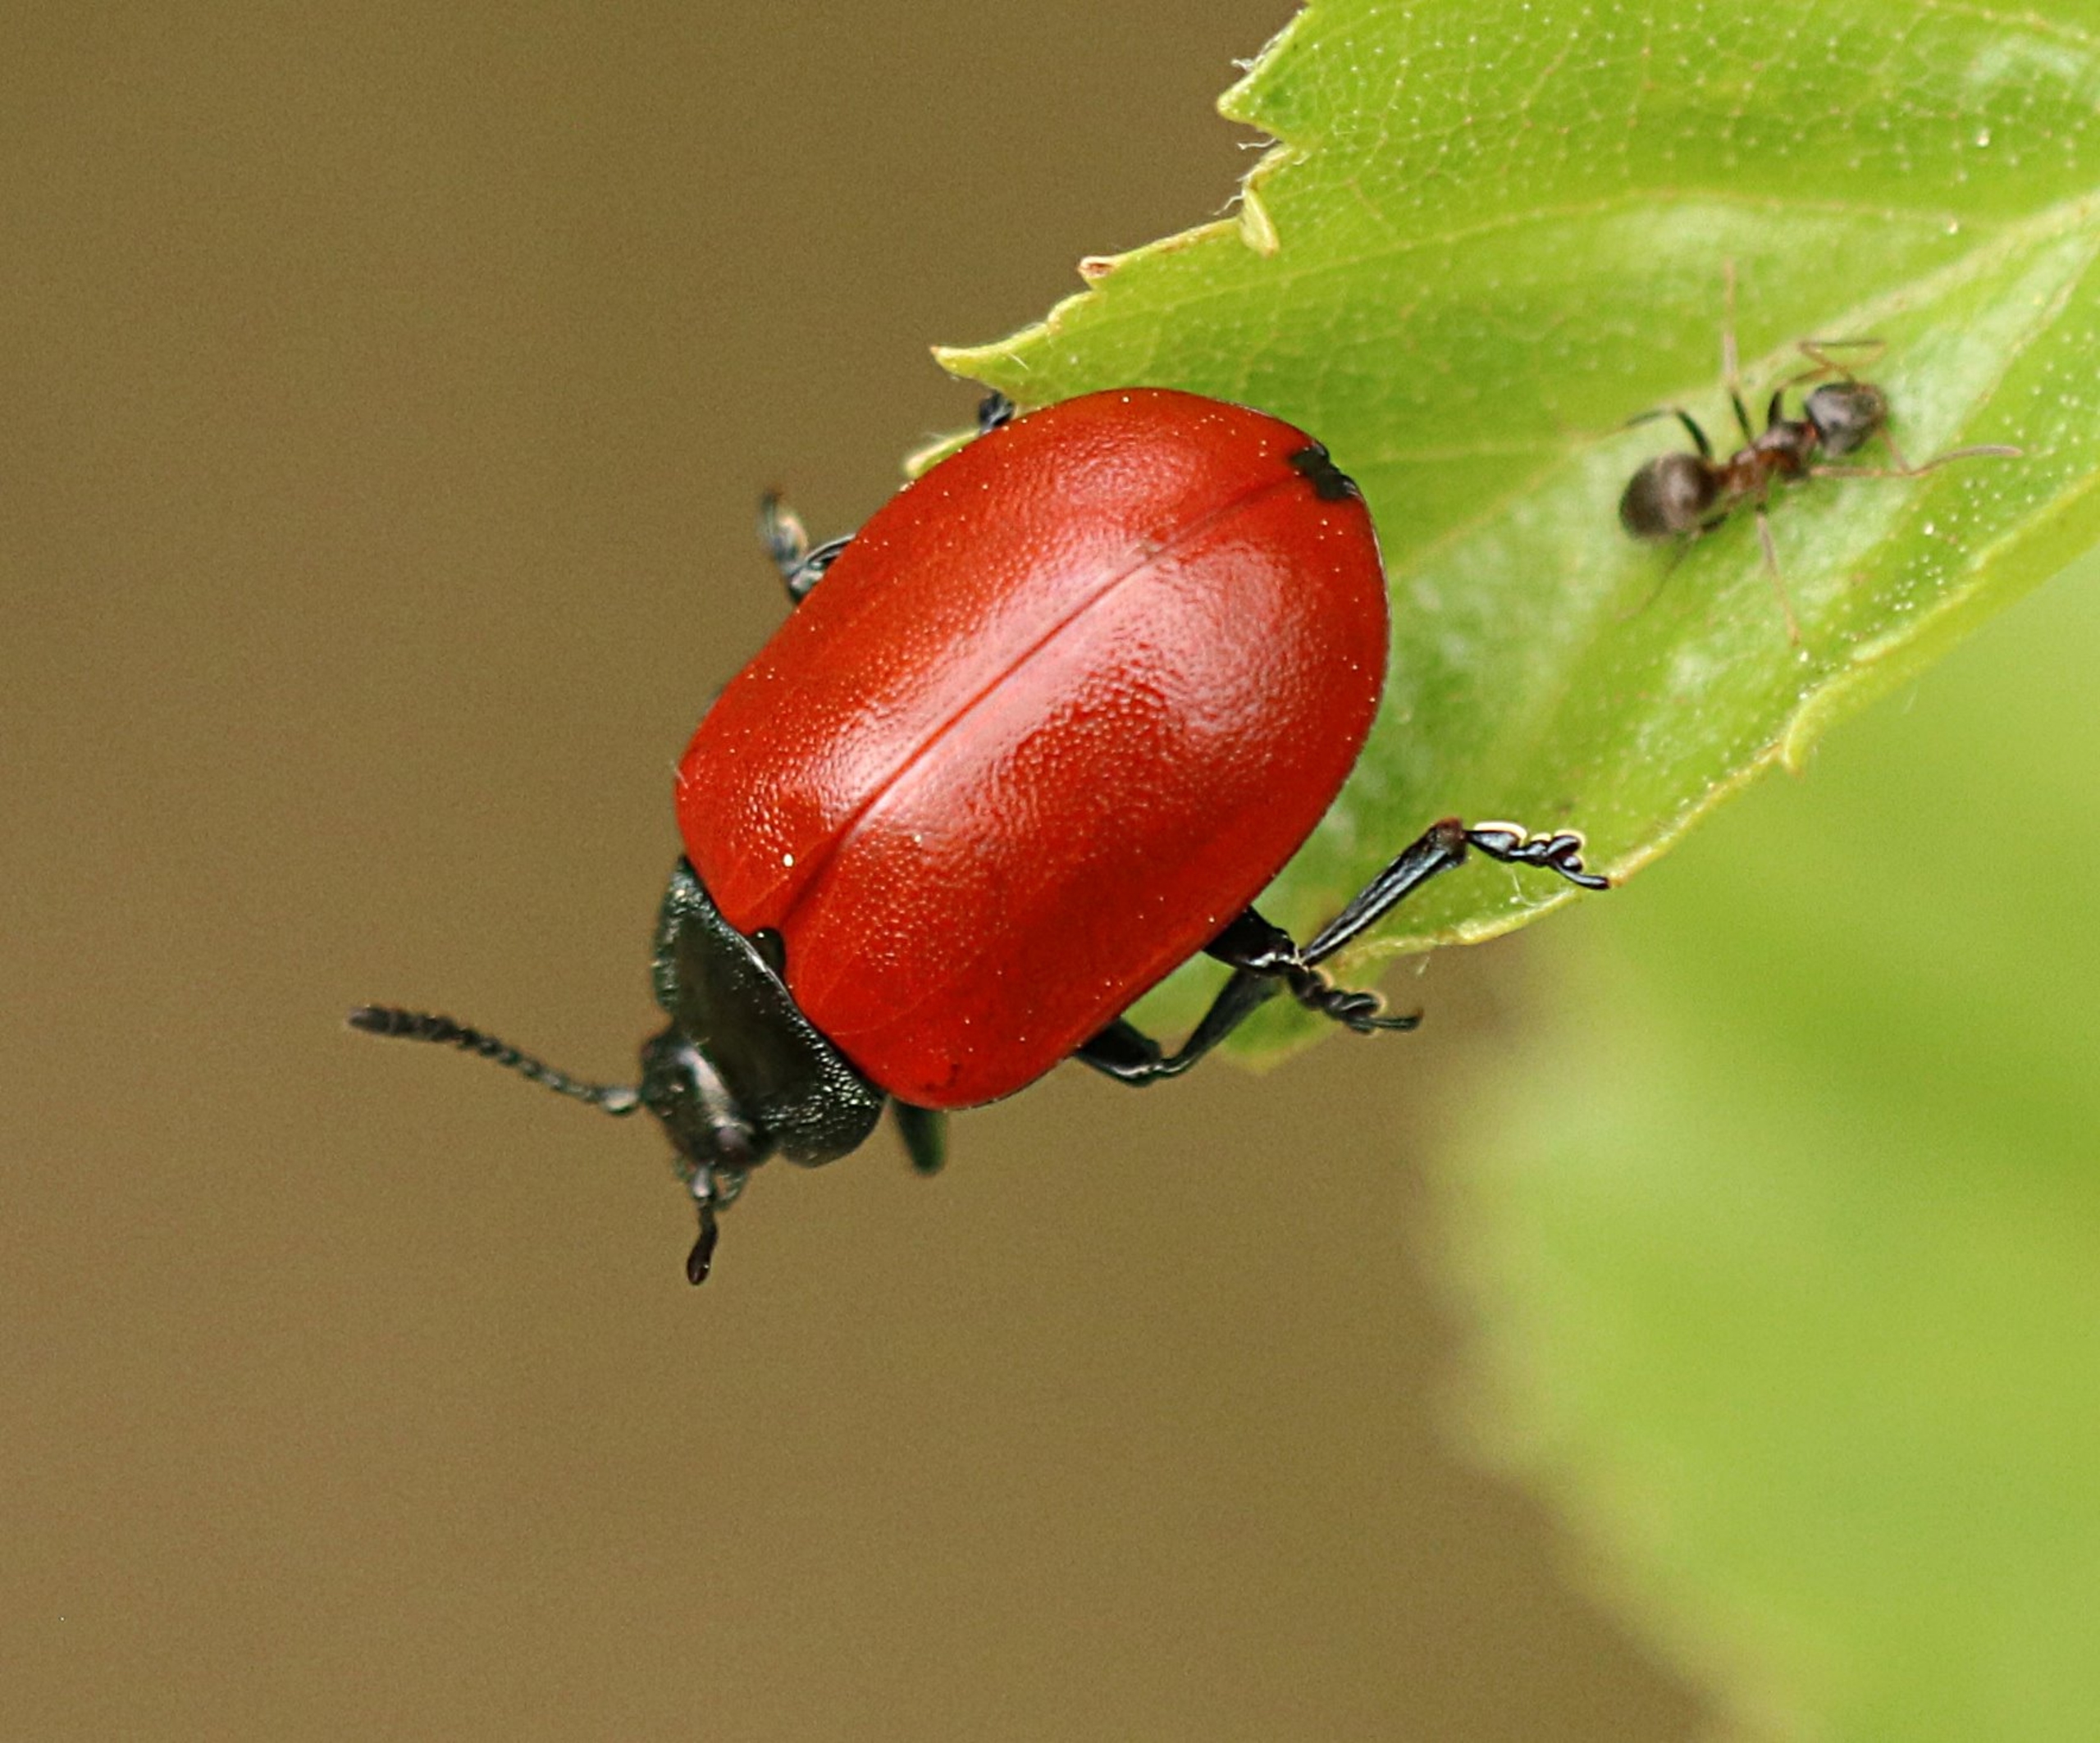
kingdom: Animalia
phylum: Arthropoda
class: Insecta
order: Coleoptera
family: Chrysomelidae
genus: Chrysomela
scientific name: Chrysomela populi
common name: Poppelbladbille
